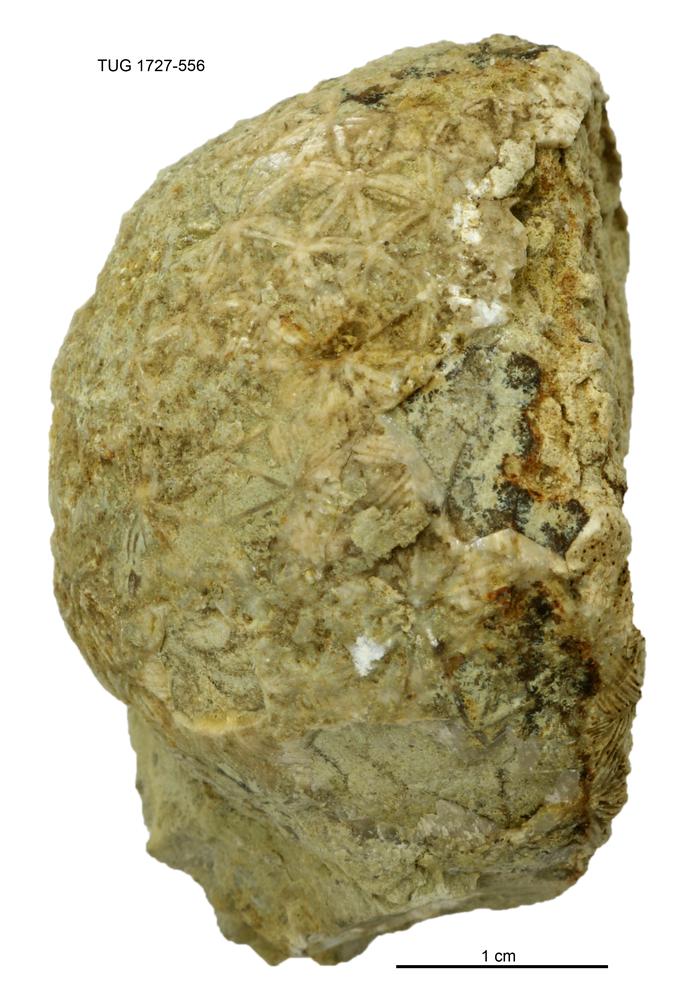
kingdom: Animalia
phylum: Echinodermata
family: Caryocystitidae
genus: Heliocrinites
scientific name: Heliocrinites Echinosphaerites balticus
